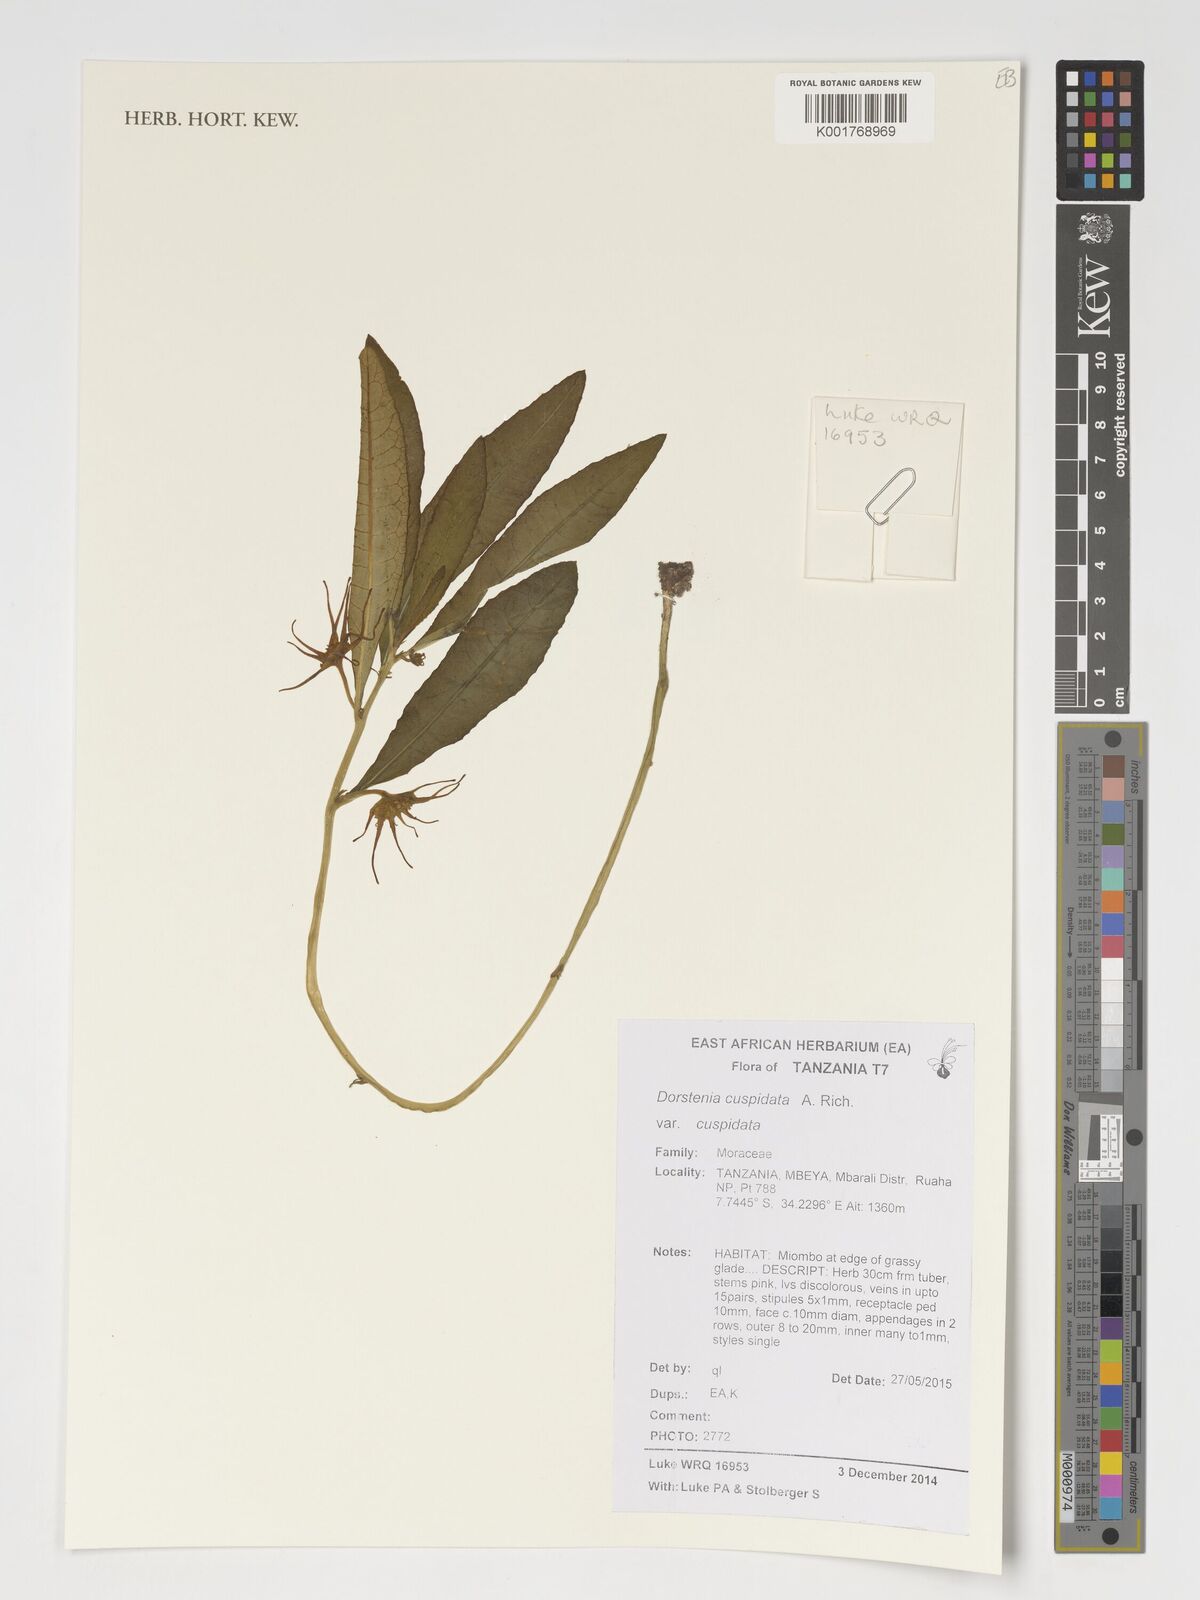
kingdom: Plantae
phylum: Tracheophyta
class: Magnoliopsida
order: Rosales
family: Moraceae
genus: Dorstenia
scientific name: Dorstenia cuspidata
